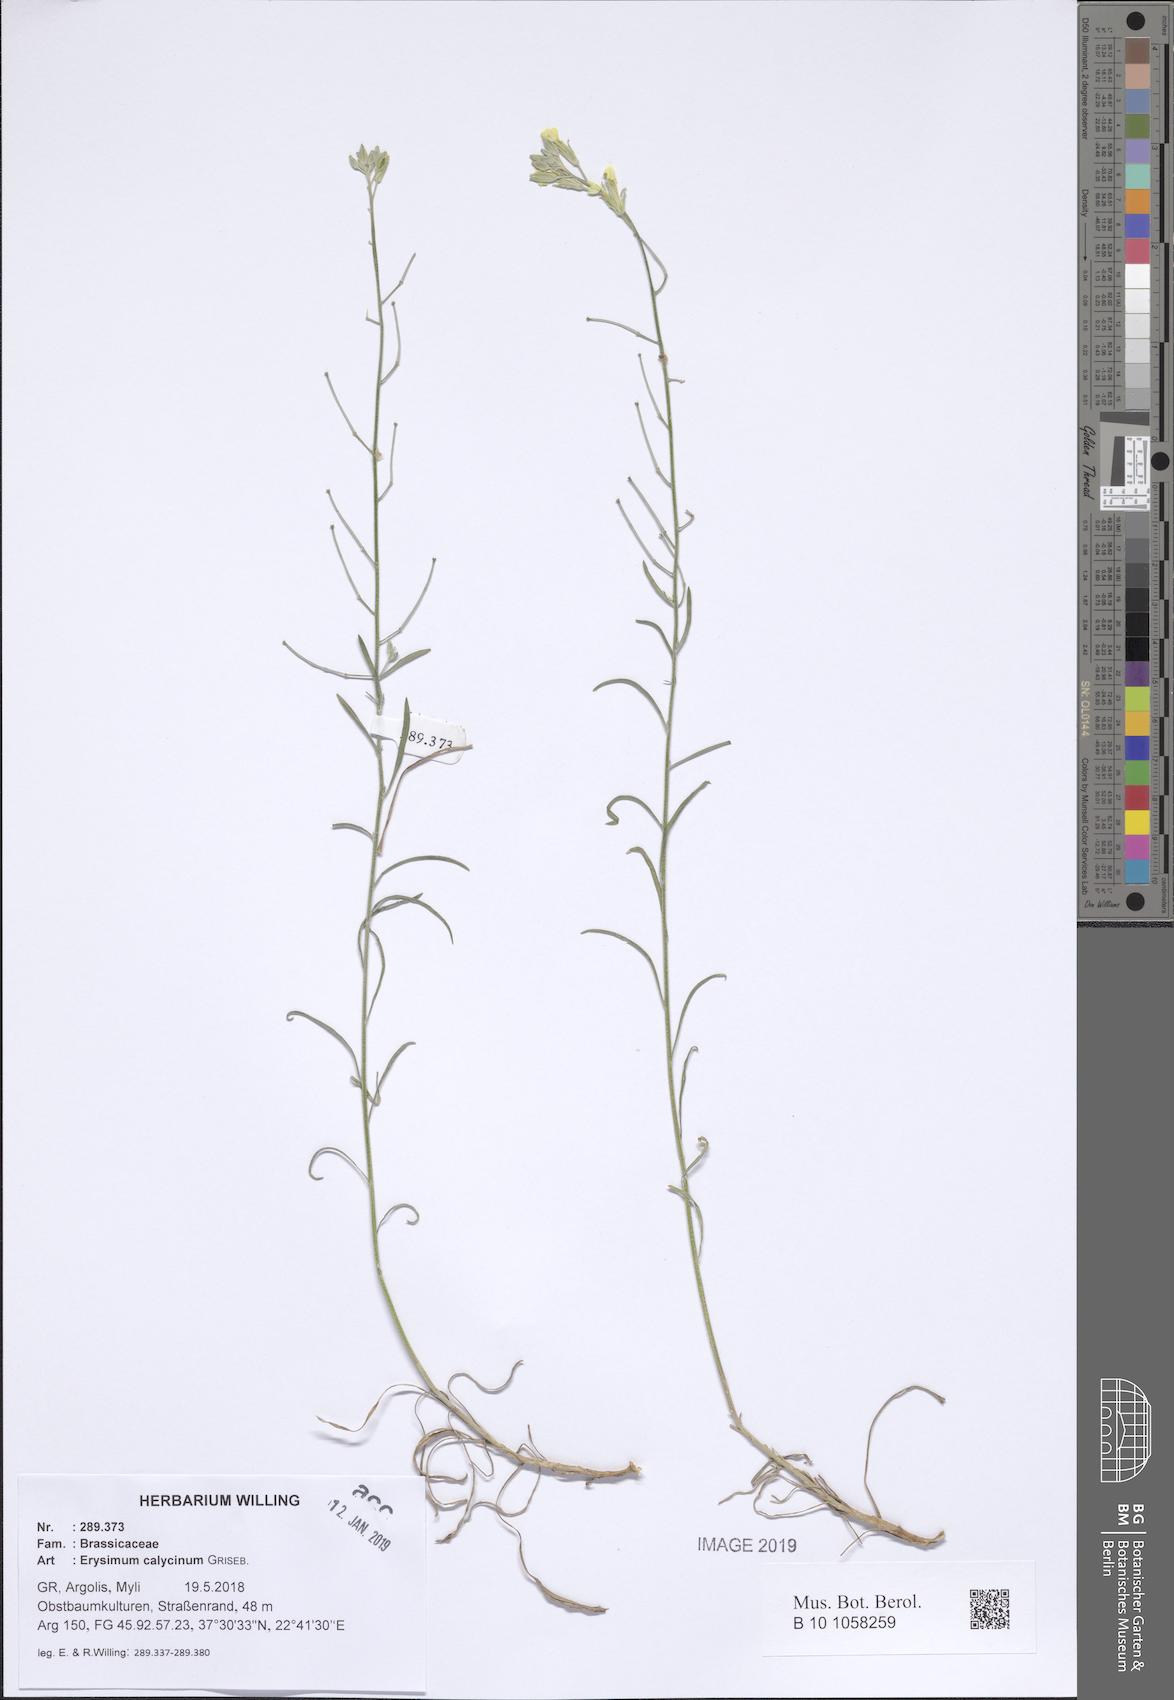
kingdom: Plantae
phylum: Tracheophyta
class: Magnoliopsida
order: Brassicales
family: Brassicaceae
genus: Erysimum
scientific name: Erysimum calycinum
